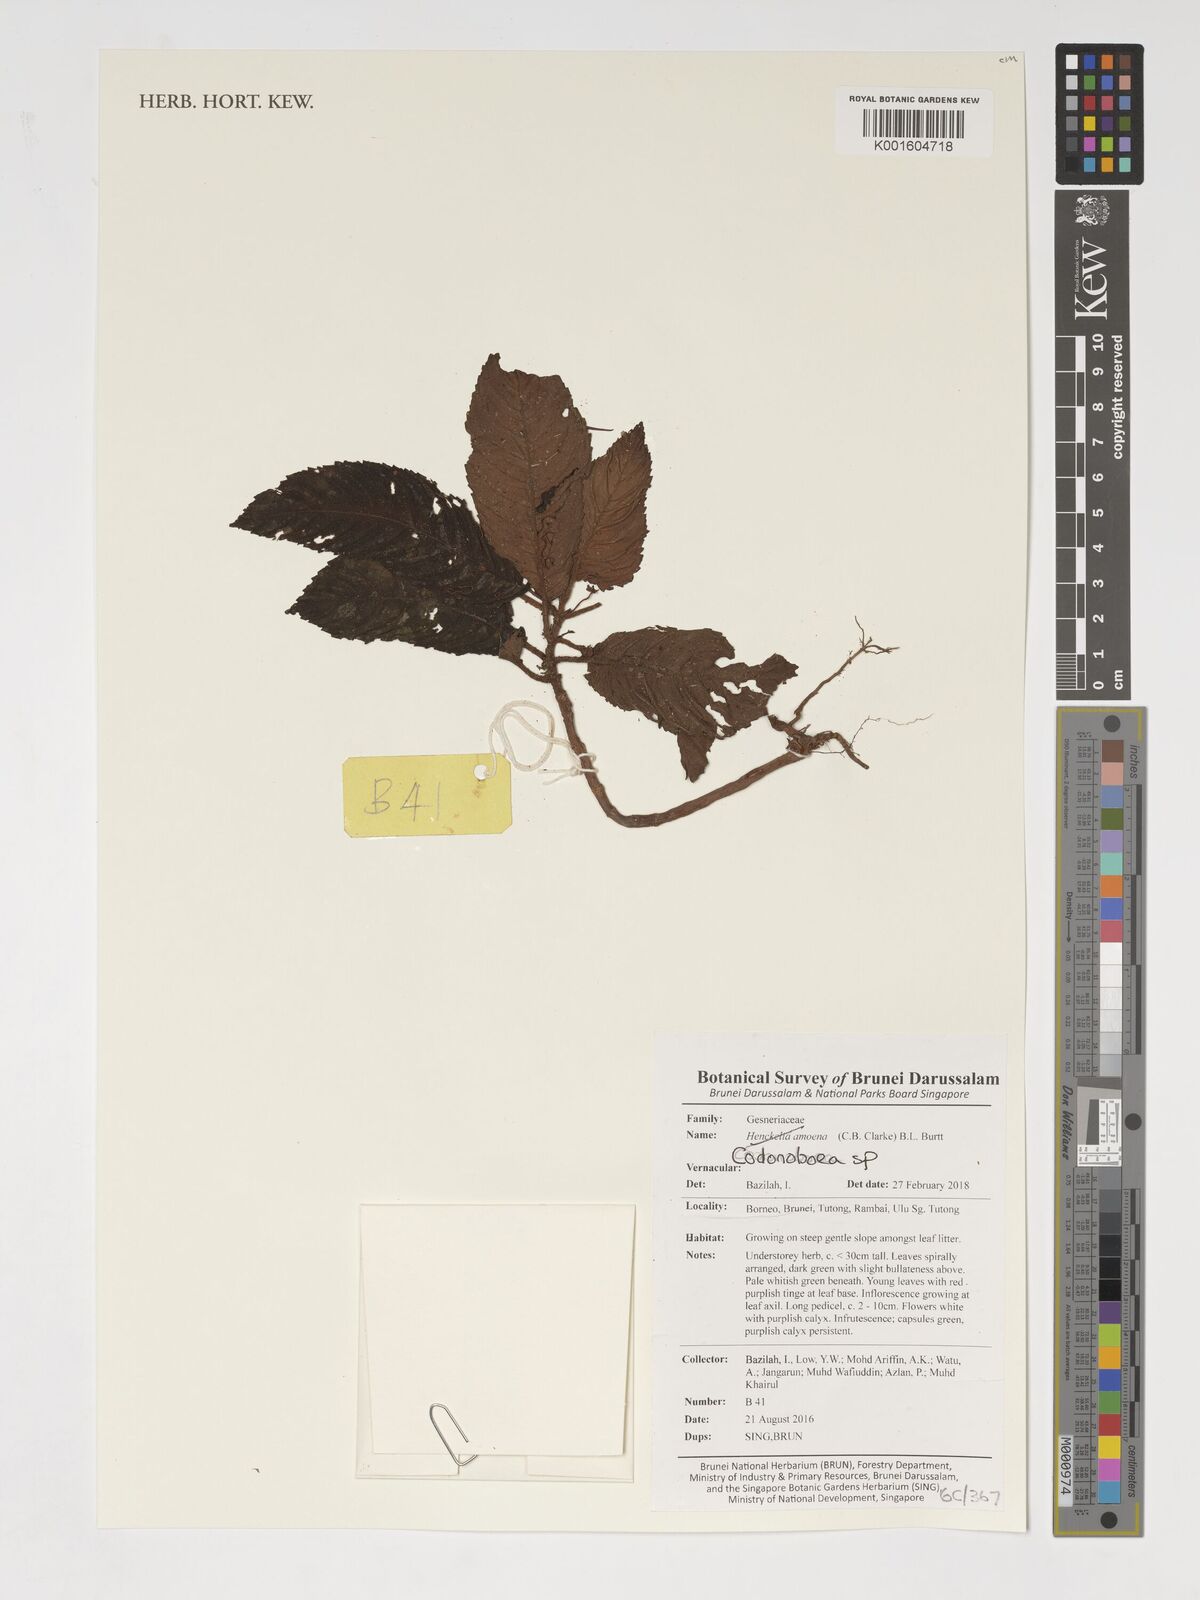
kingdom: Plantae
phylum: Tracheophyta
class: Magnoliopsida
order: Lamiales
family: Gesneriaceae
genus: Codonoboea
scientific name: Codonoboea
